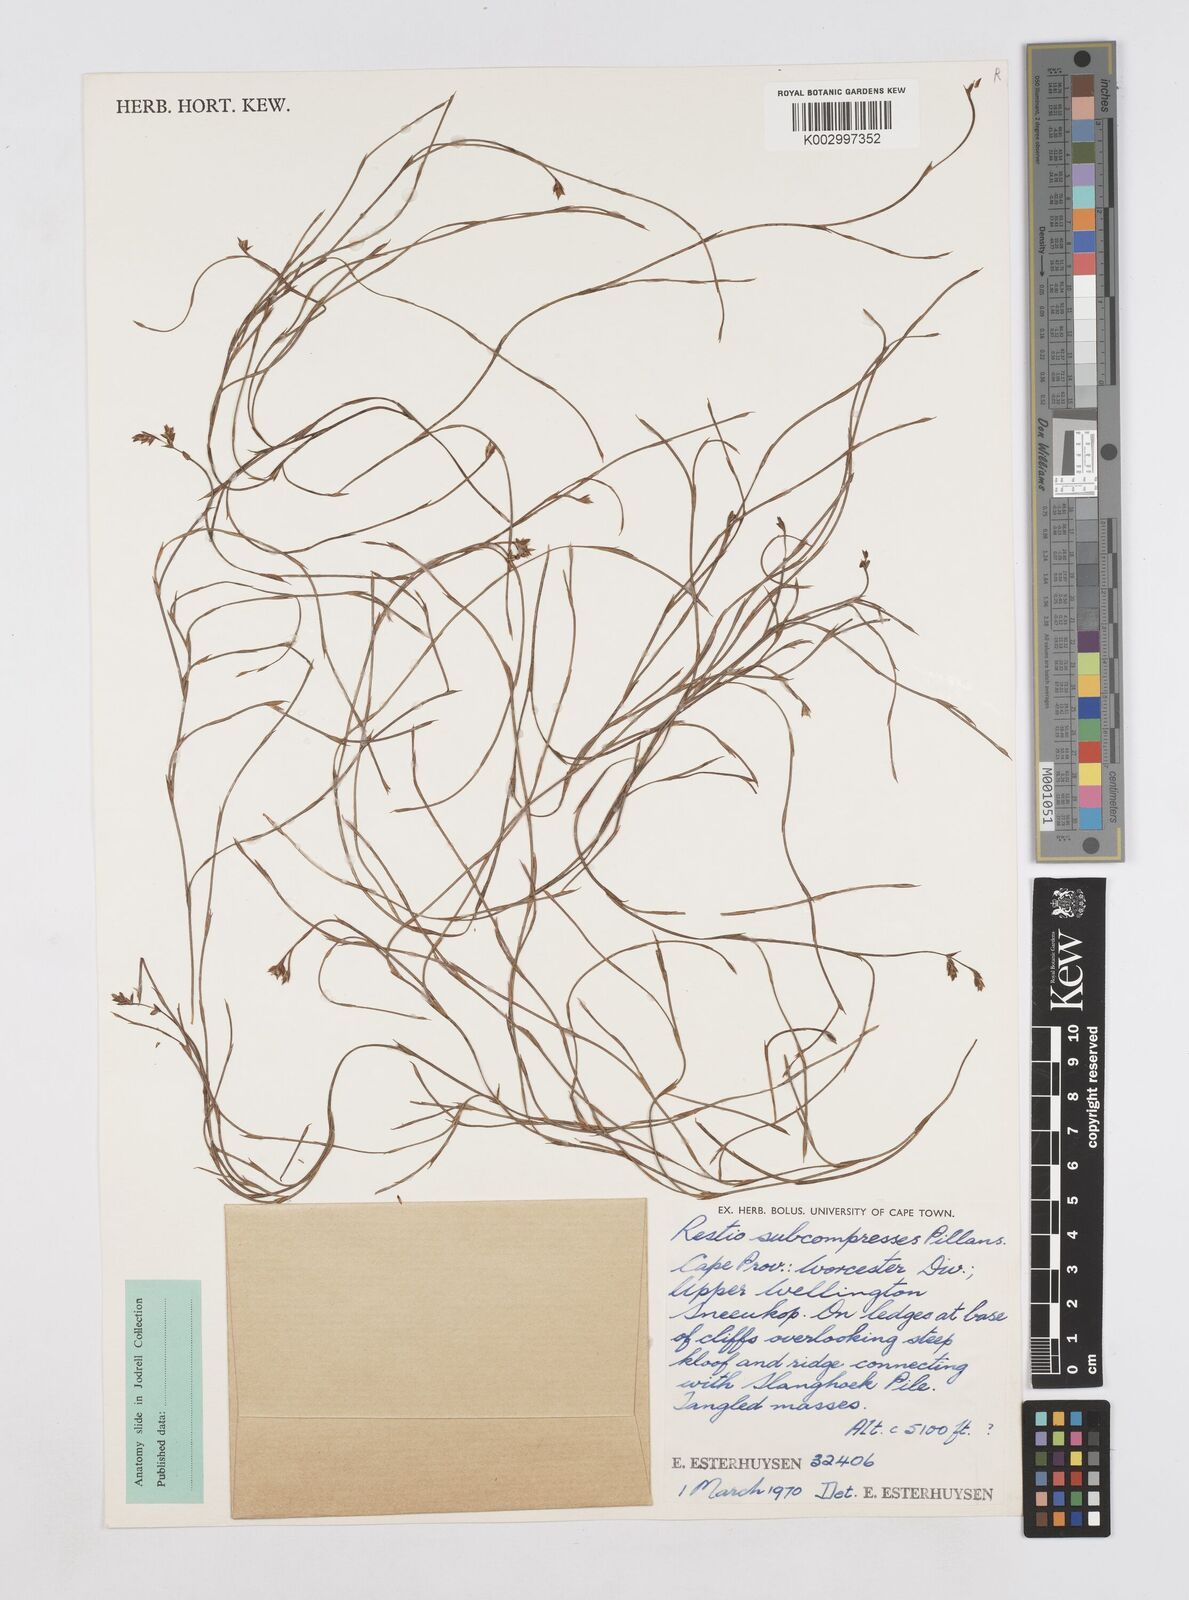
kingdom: Plantae
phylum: Tracheophyta
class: Liliopsida
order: Poales
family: Restionaceae
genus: Platycaulos
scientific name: Platycaulos subcompressus
